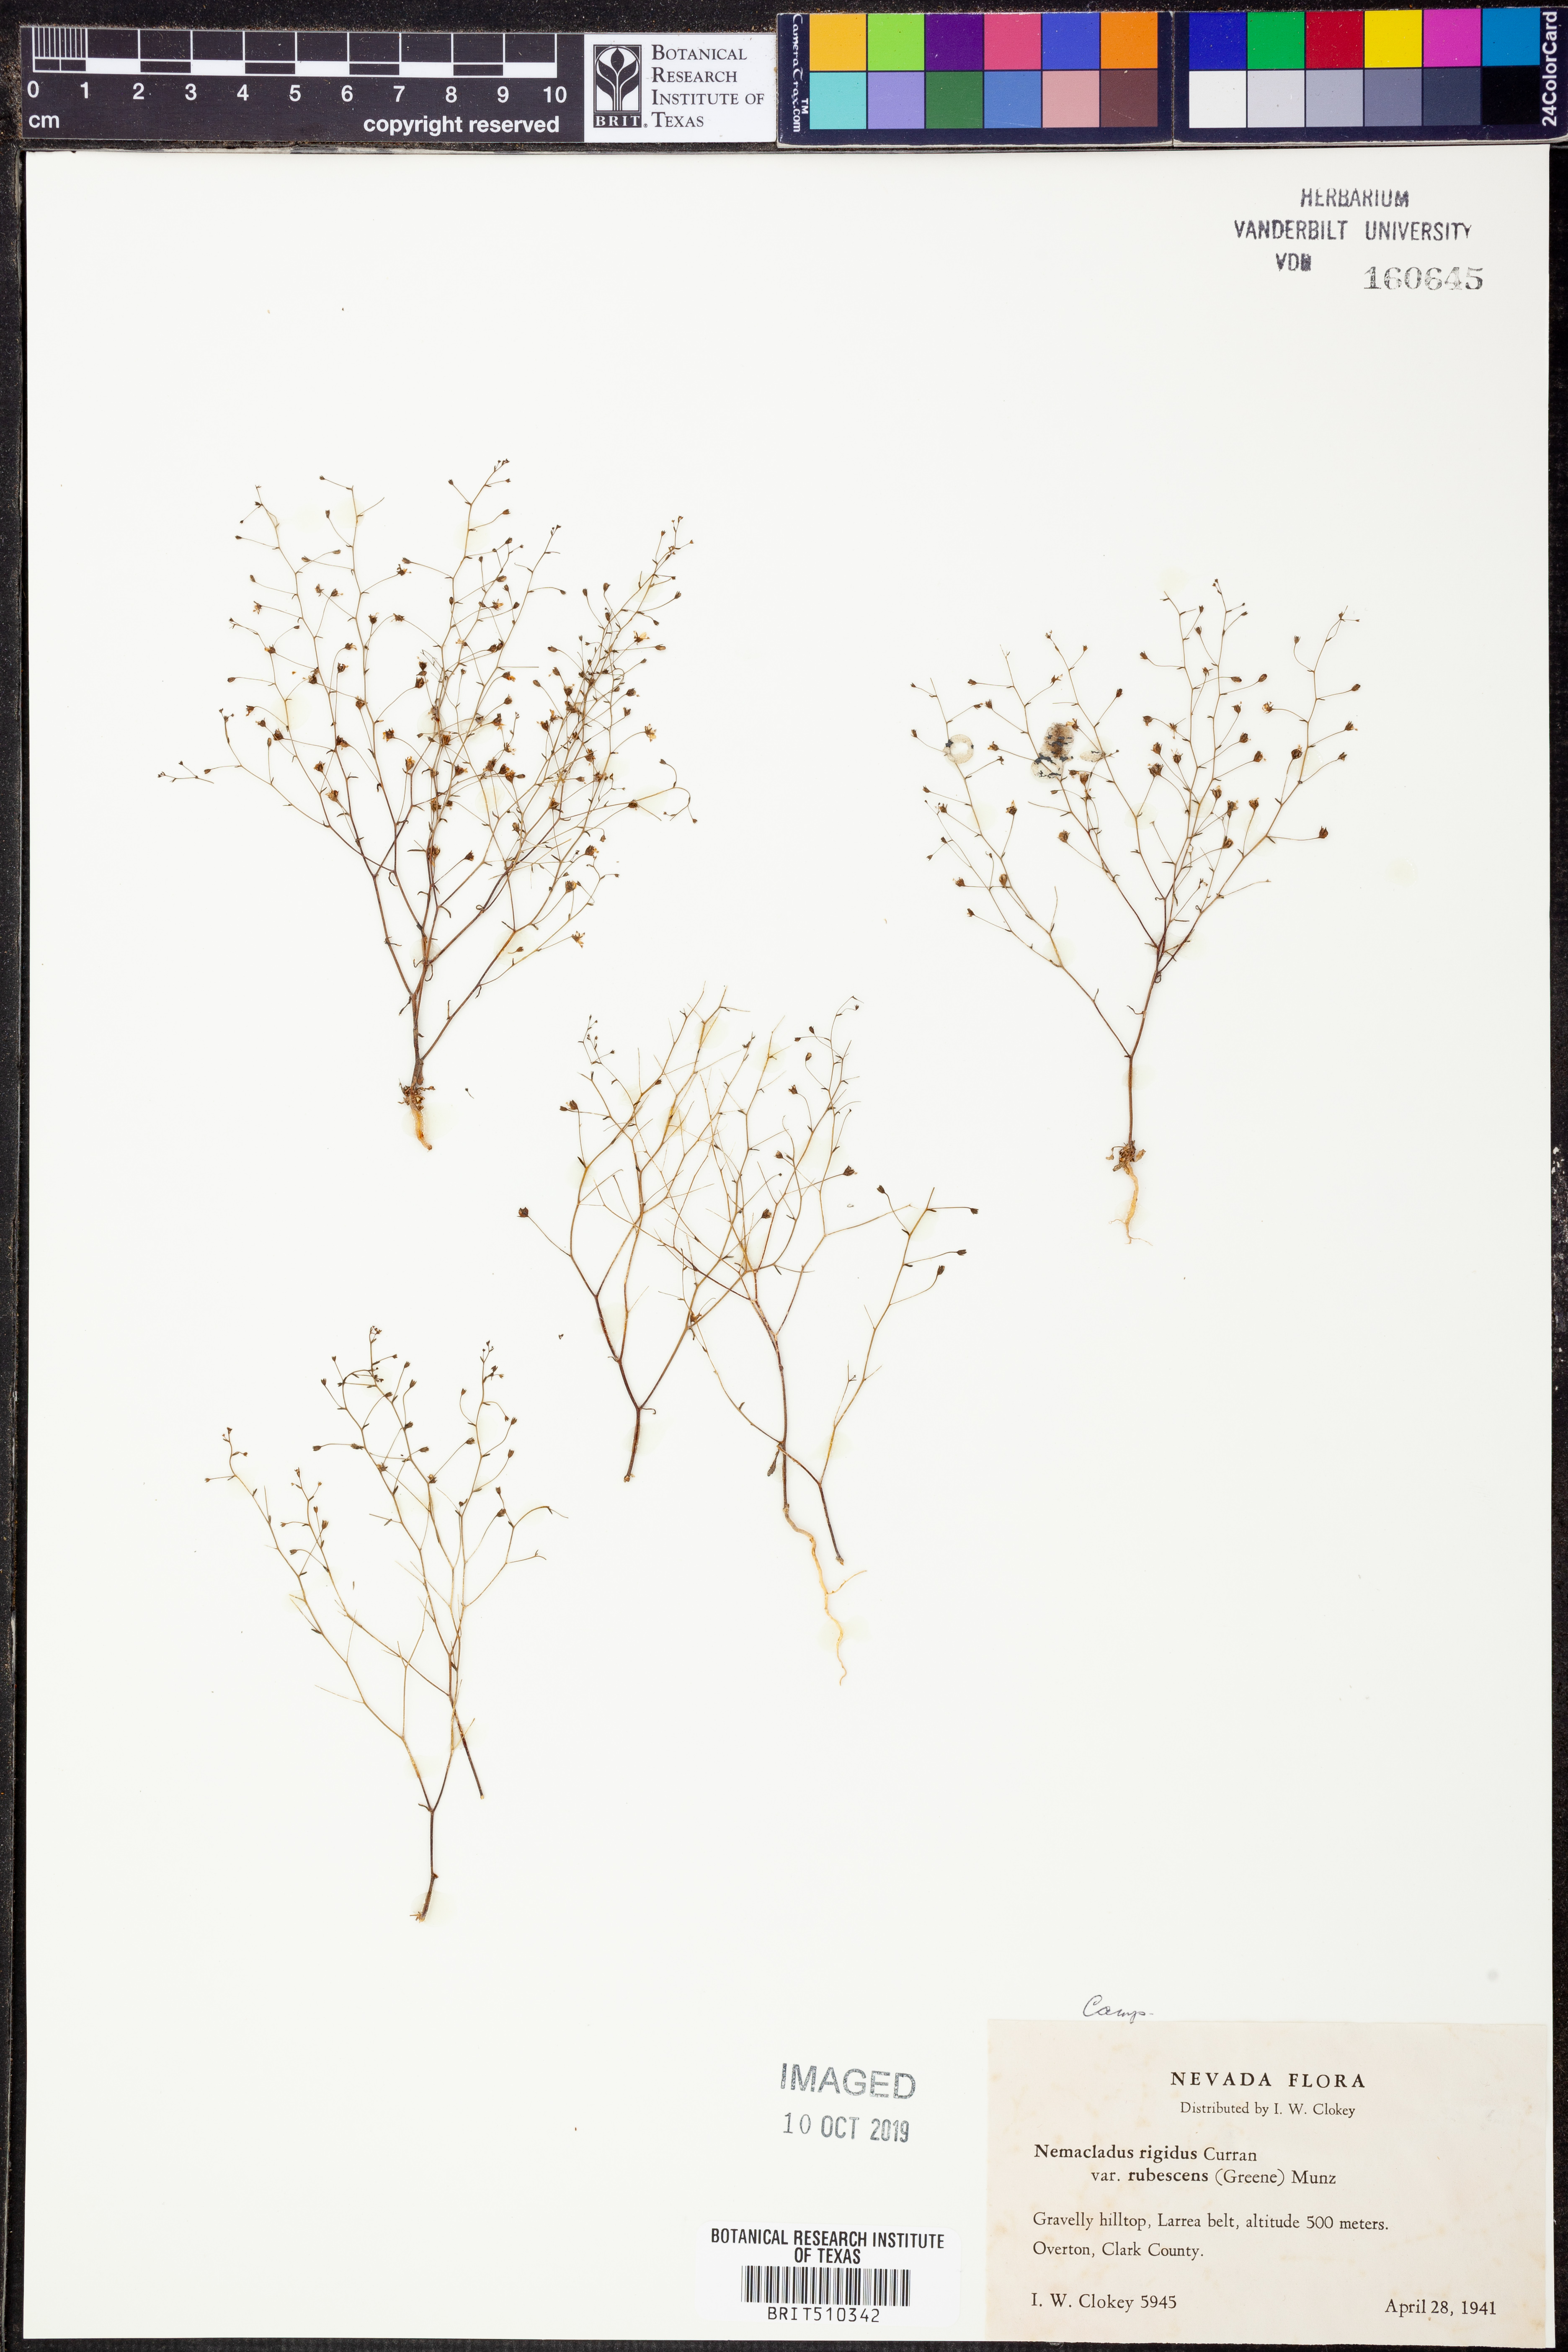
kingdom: Plantae
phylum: Tracheophyta
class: Magnoliopsida
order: Asterales
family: Campanulaceae
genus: Nemacladus
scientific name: Nemacladus rubescens
